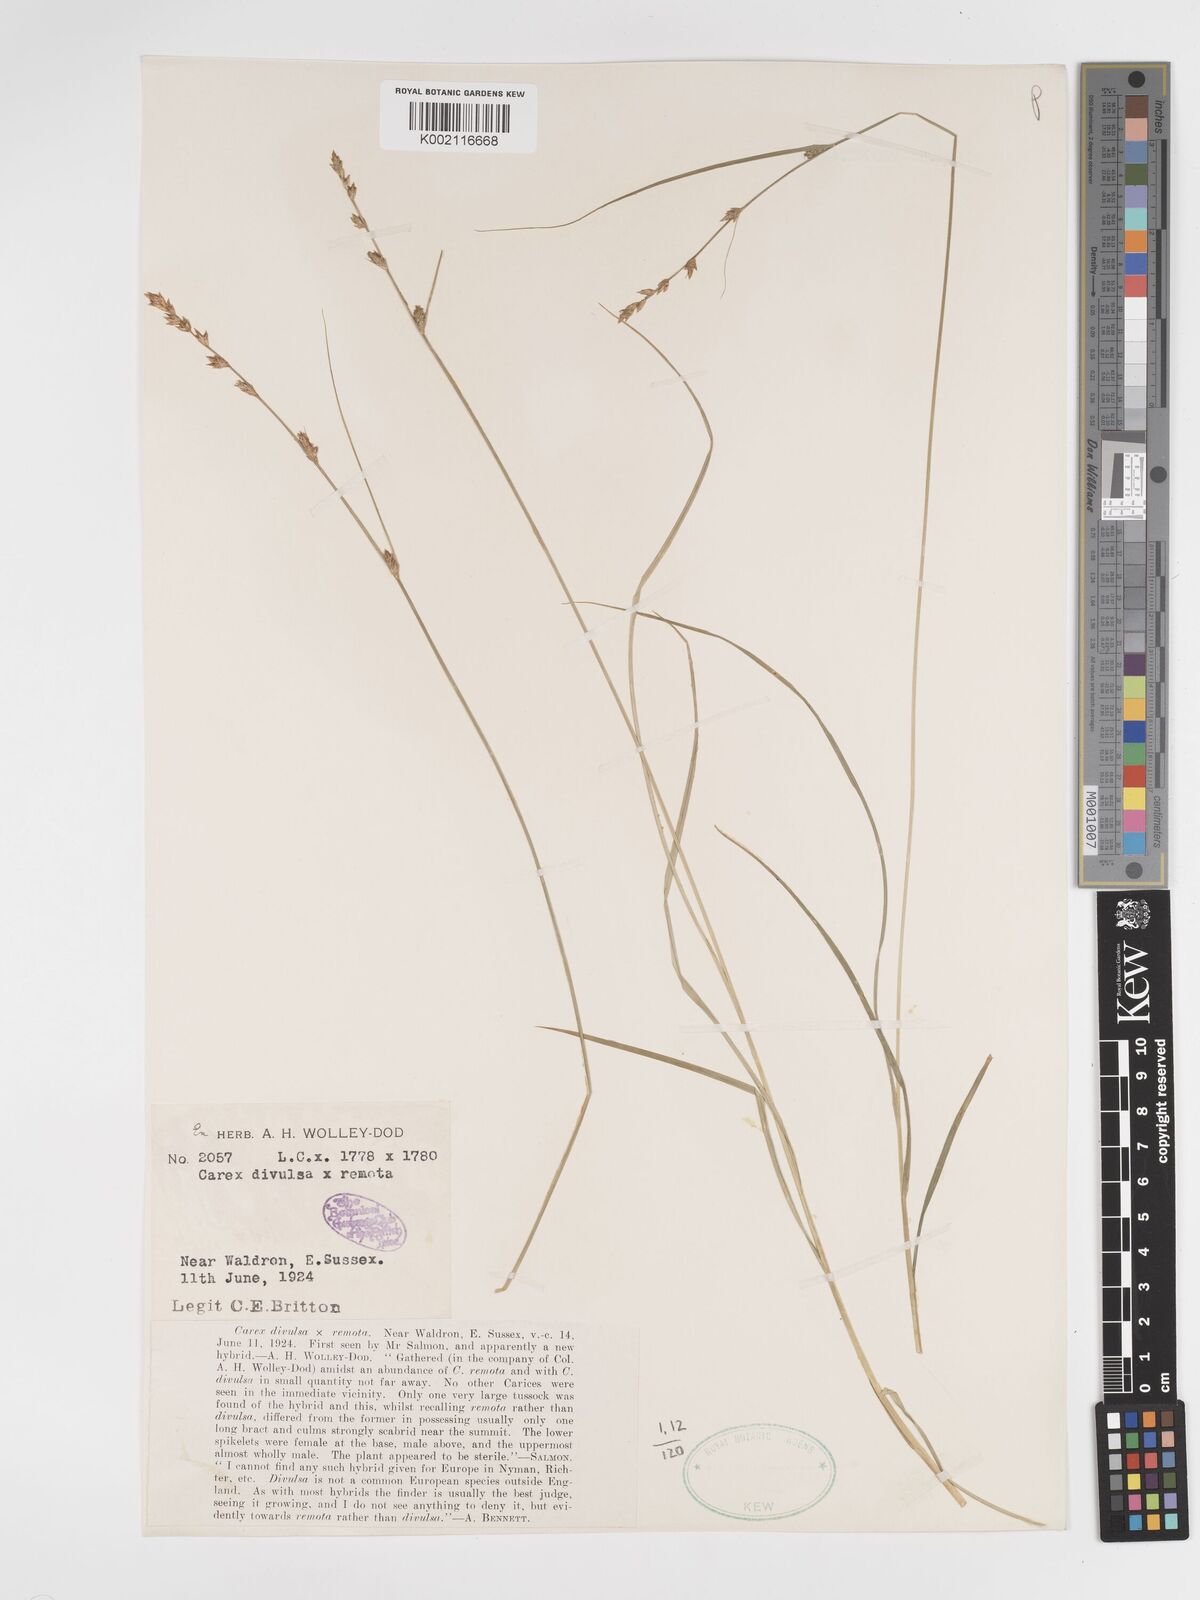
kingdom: Plantae
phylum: Tracheophyta
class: Liliopsida
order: Poales
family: Cyperaceae
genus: Carex
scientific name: Carex divulsa
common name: Grassland sedge
